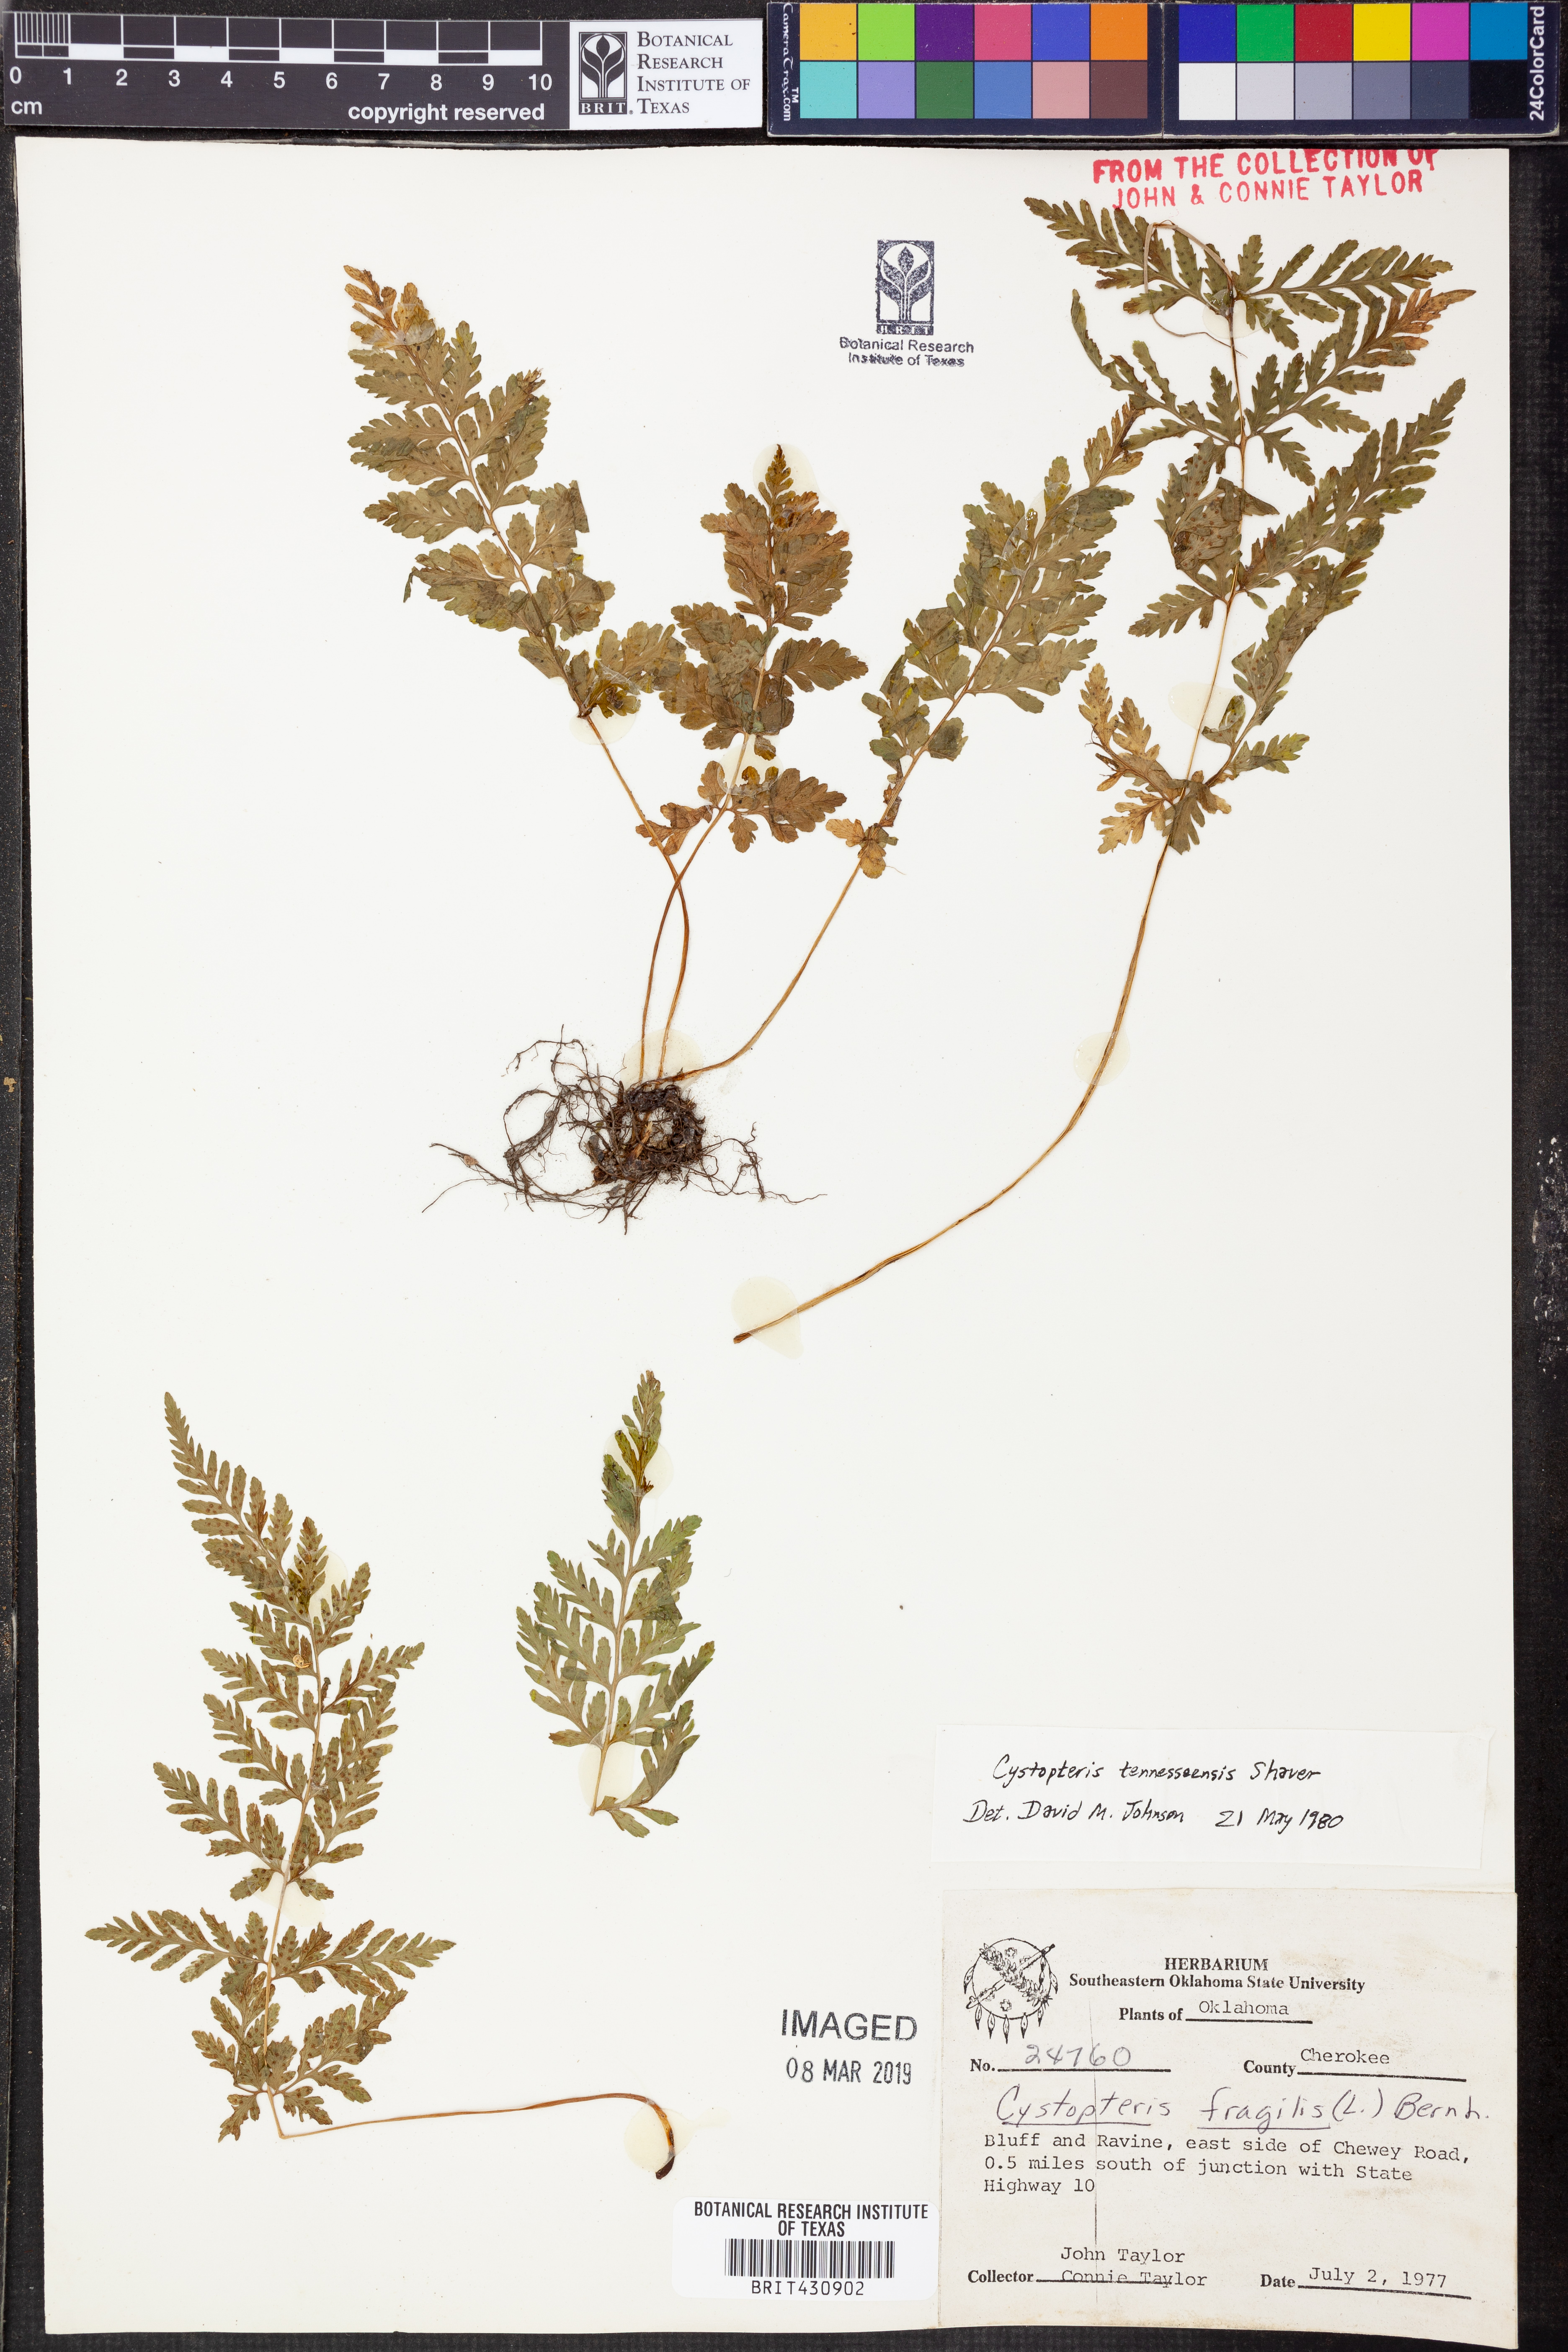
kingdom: Plantae
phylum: Tracheophyta
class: Polypodiopsida
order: Polypodiales
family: Cystopteridaceae
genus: Cystopteris
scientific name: Cystopteris tennesseensis
